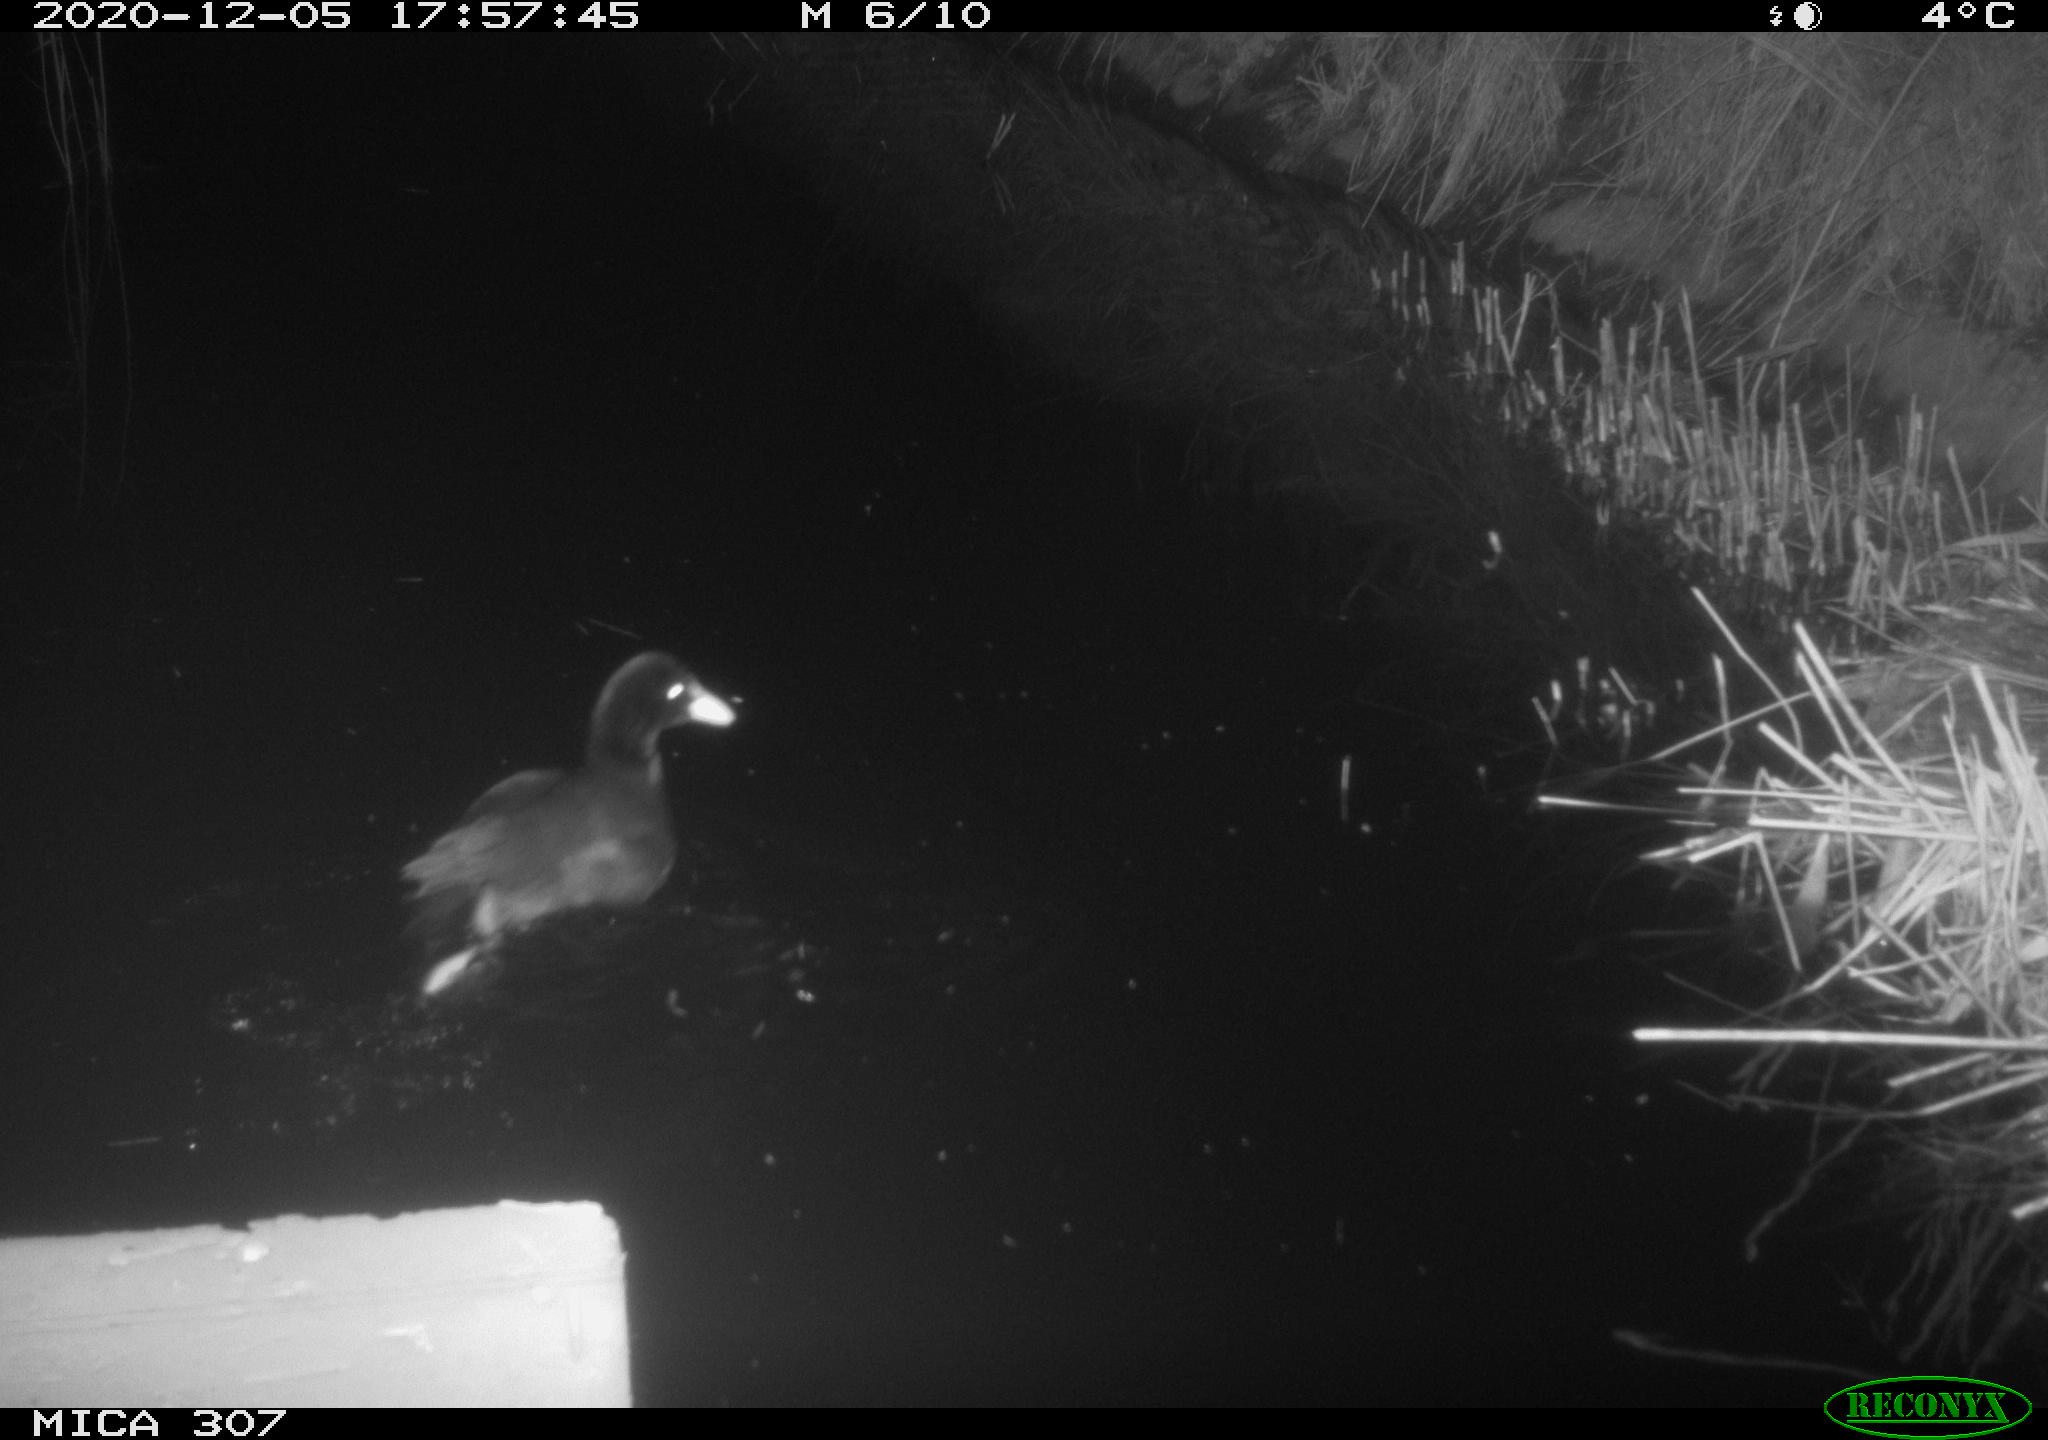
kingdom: Animalia
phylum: Chordata
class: Aves
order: Gruiformes
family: Rallidae
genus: Gallinula
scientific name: Gallinula chloropus
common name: Common moorhen
